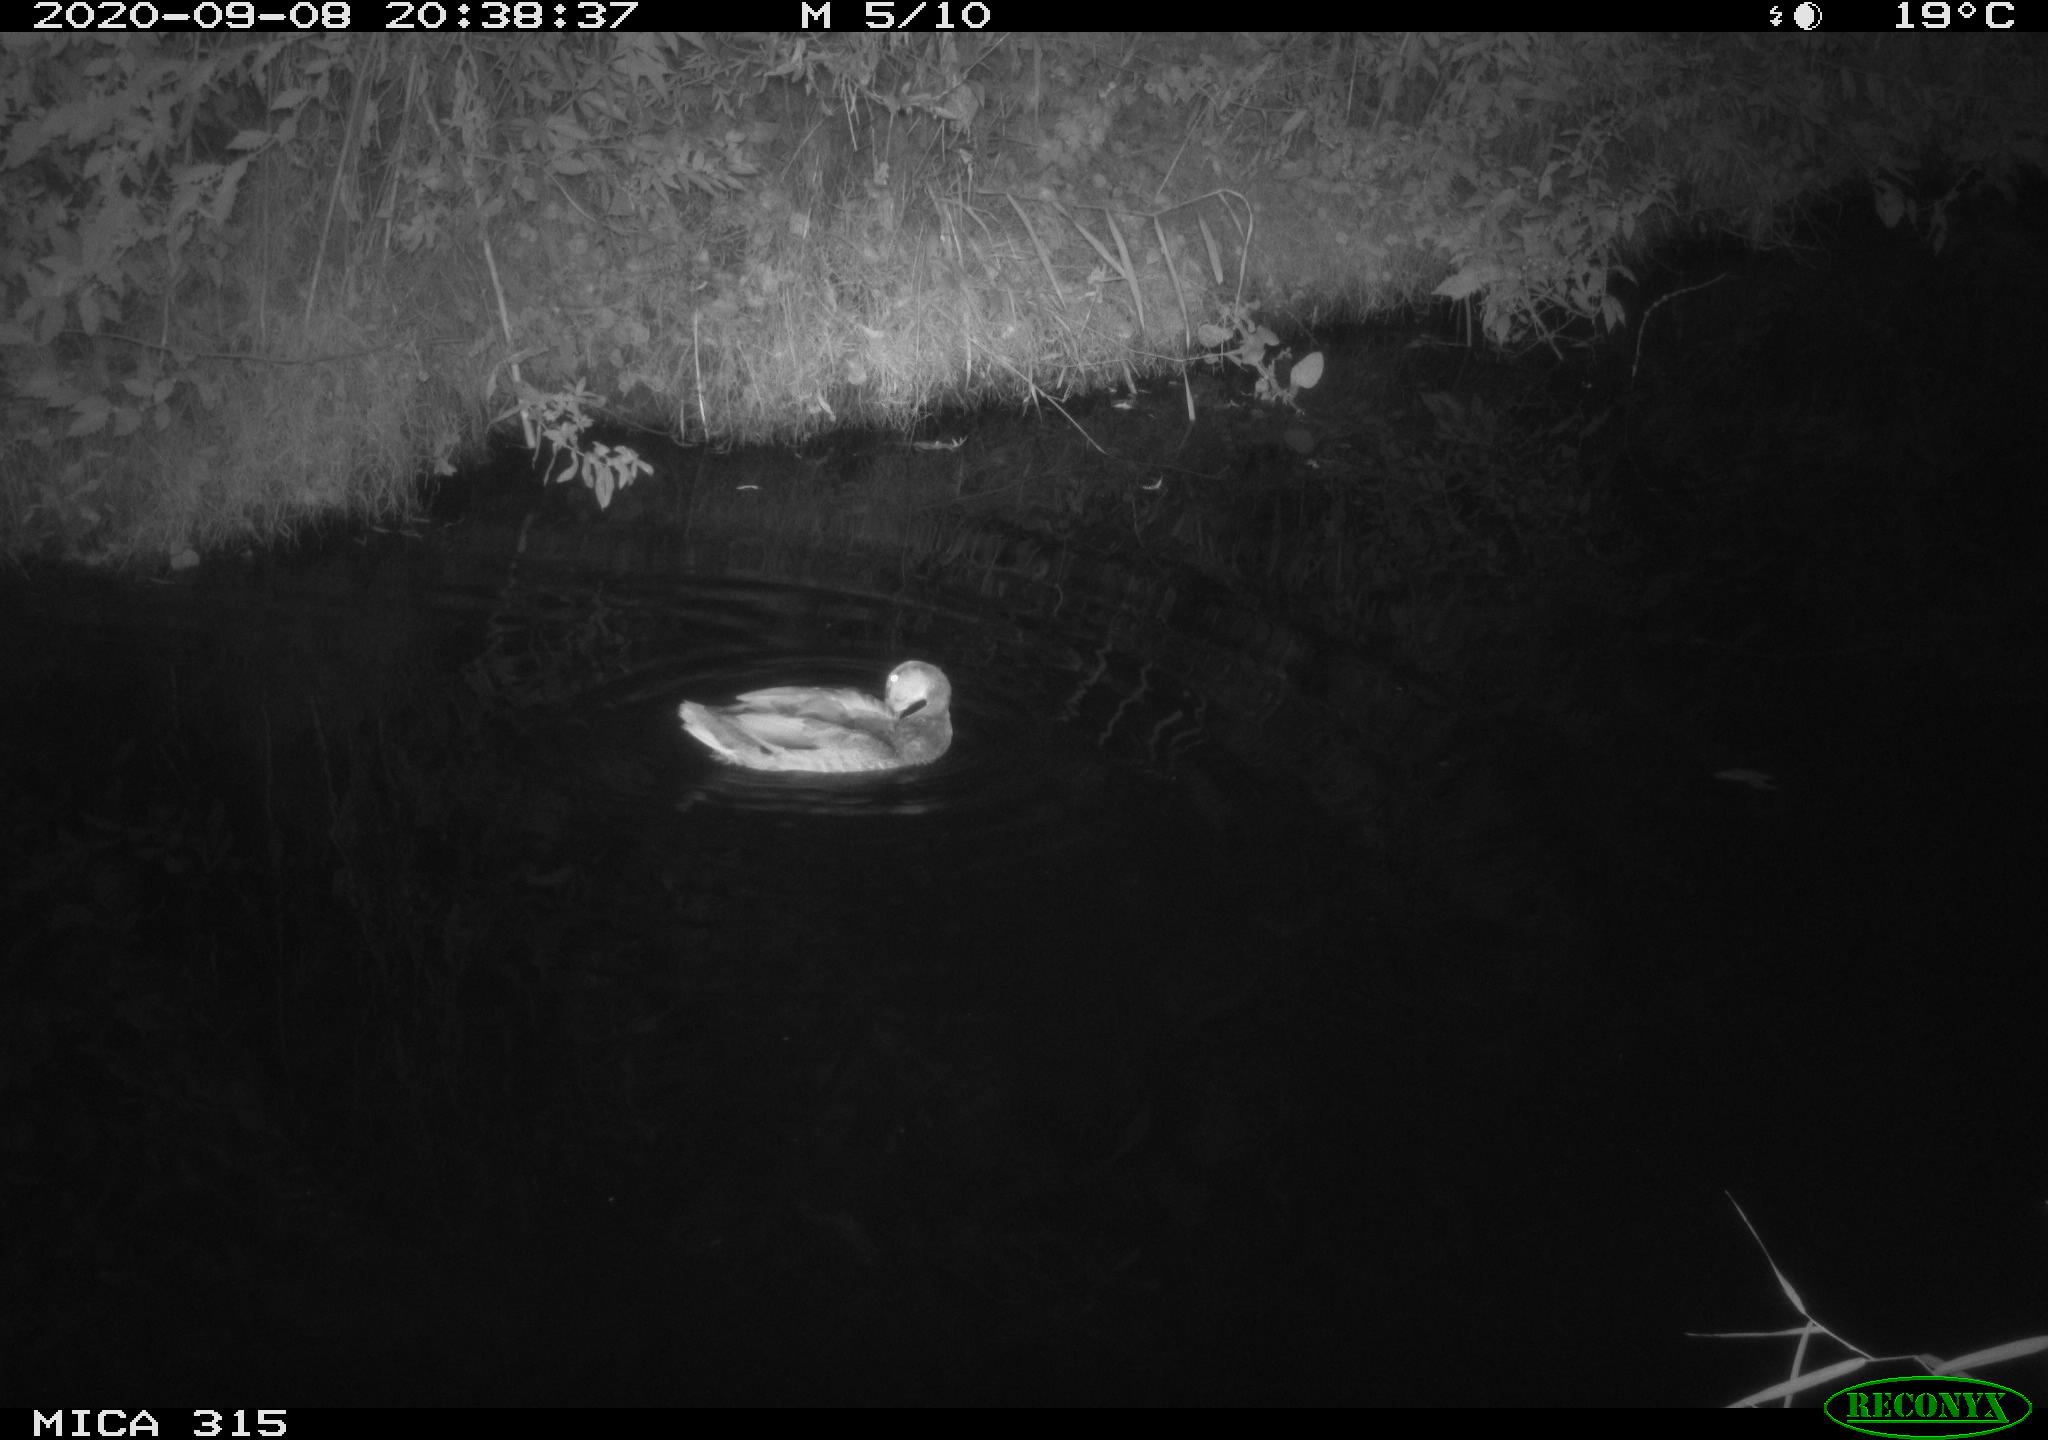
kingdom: Animalia
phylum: Chordata
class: Aves
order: Anseriformes
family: Anatidae
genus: Anas
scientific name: Anas platyrhynchos
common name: Mallard
